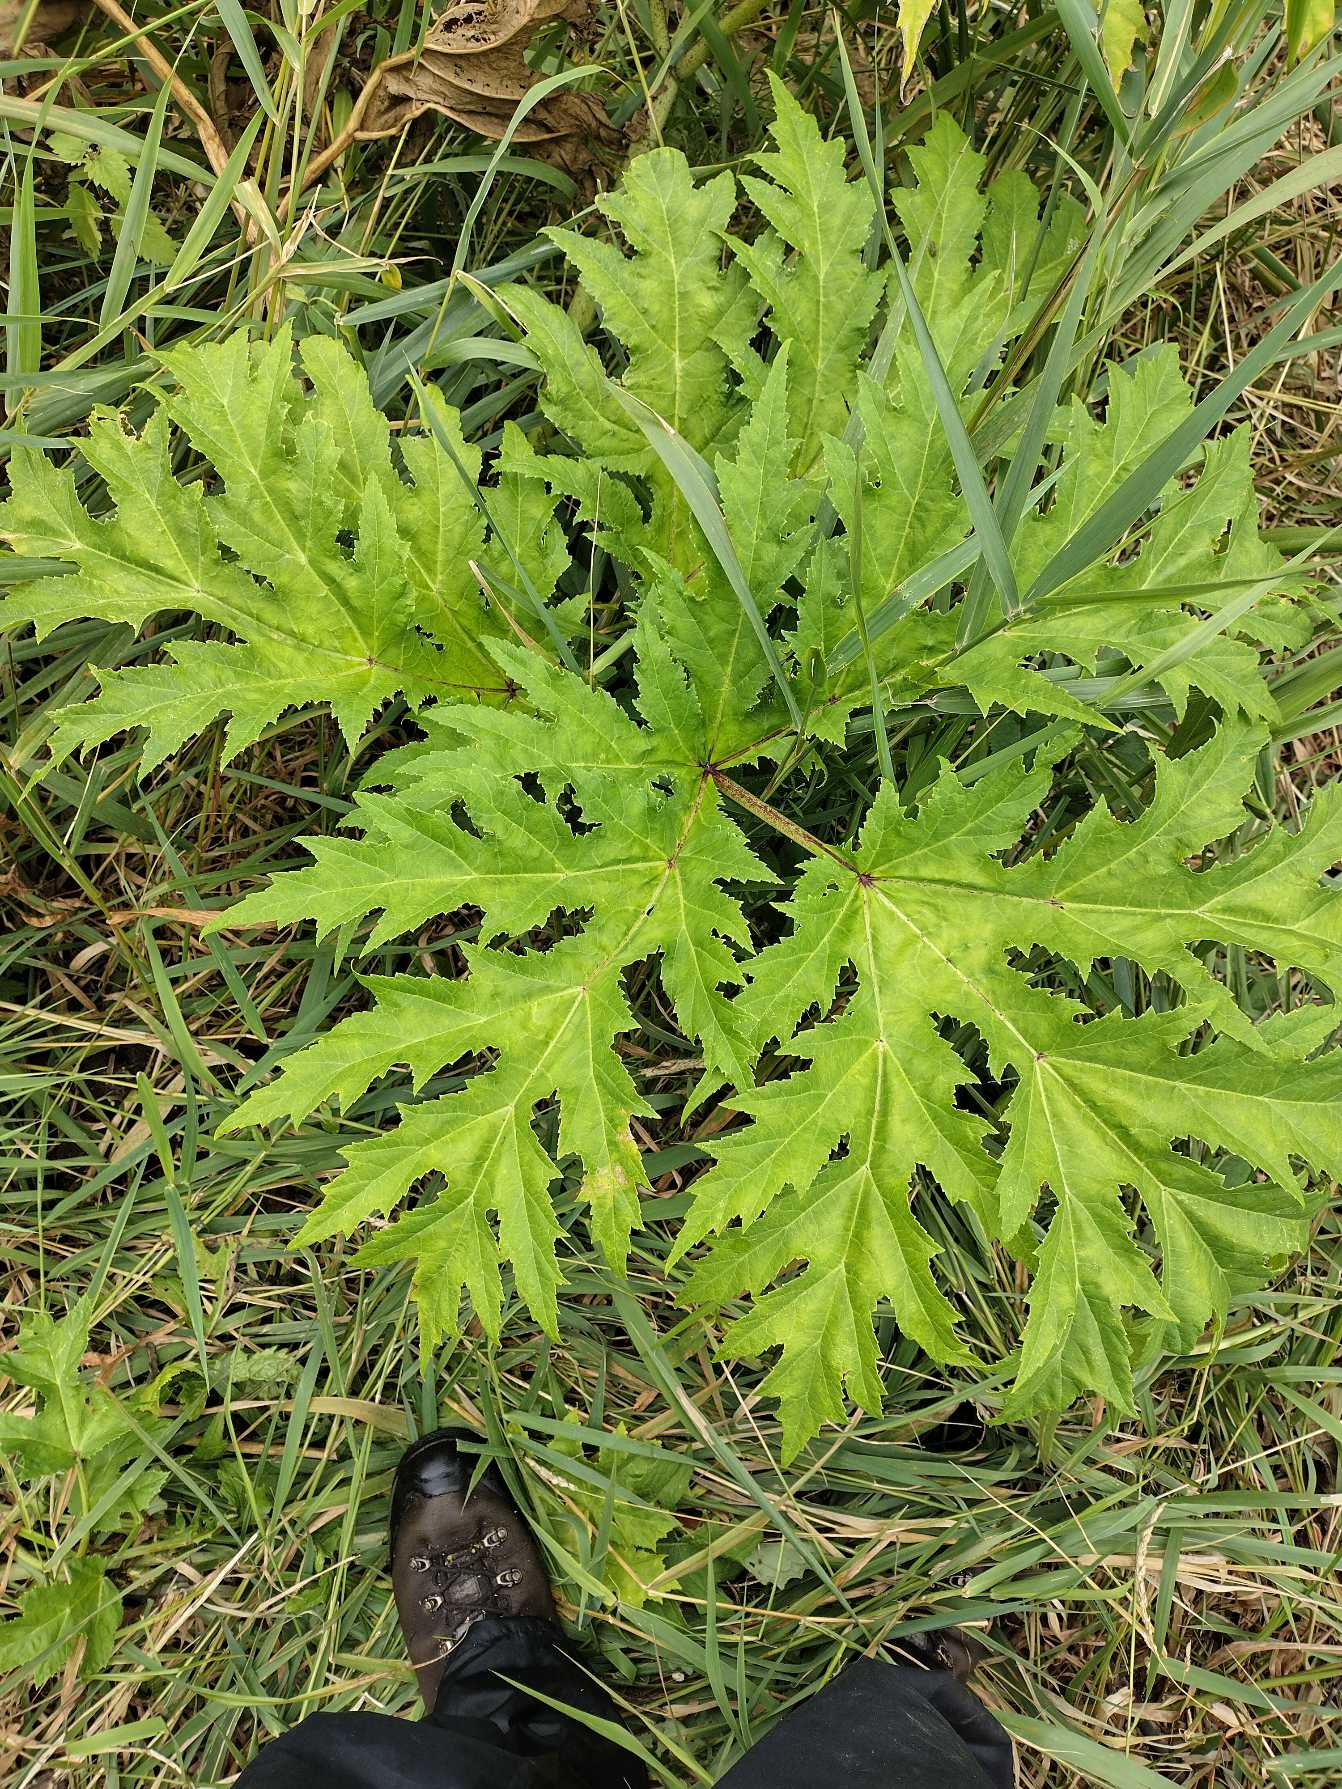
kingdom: Plantae
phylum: Tracheophyta
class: Magnoliopsida
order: Apiales
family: Apiaceae
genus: Heracleum
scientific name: Heracleum mantegazzianum
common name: Kæmpe-bjørneklo
